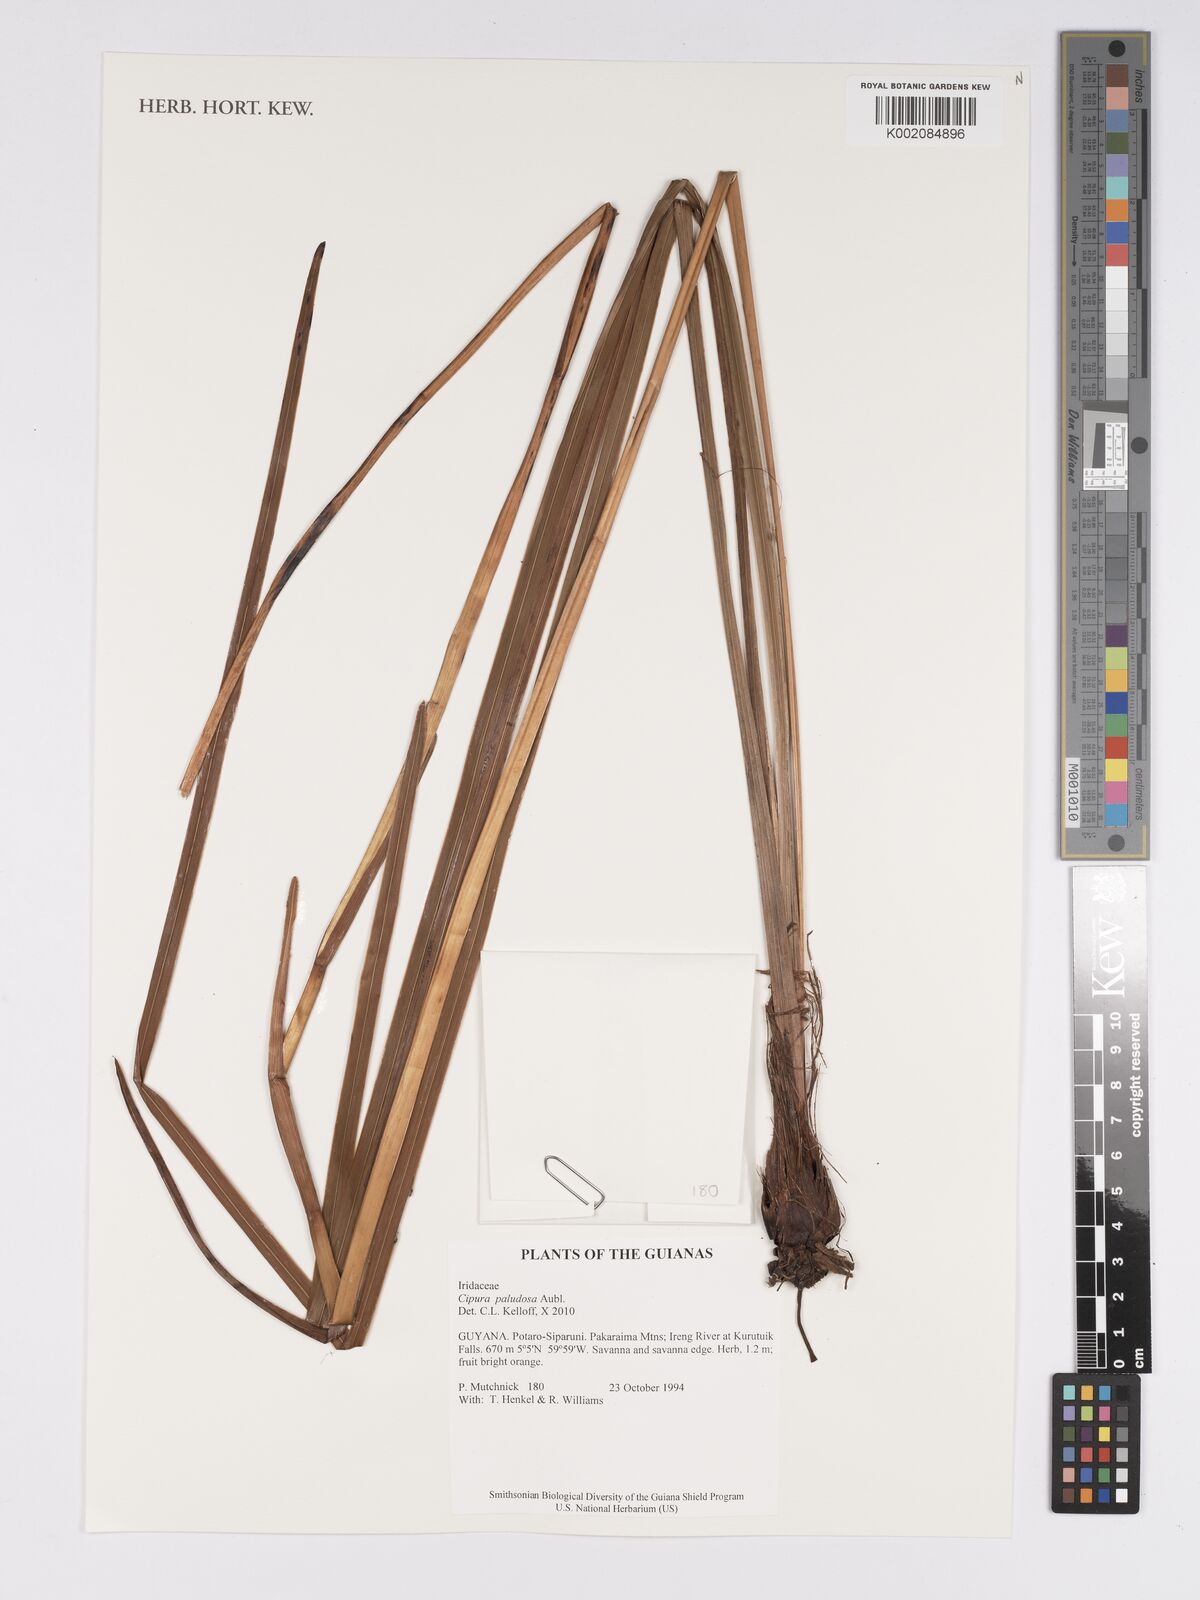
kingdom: Plantae
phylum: Tracheophyta
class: Liliopsida
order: Asparagales
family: Iridaceae
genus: Cipura
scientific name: Cipura paludosa
